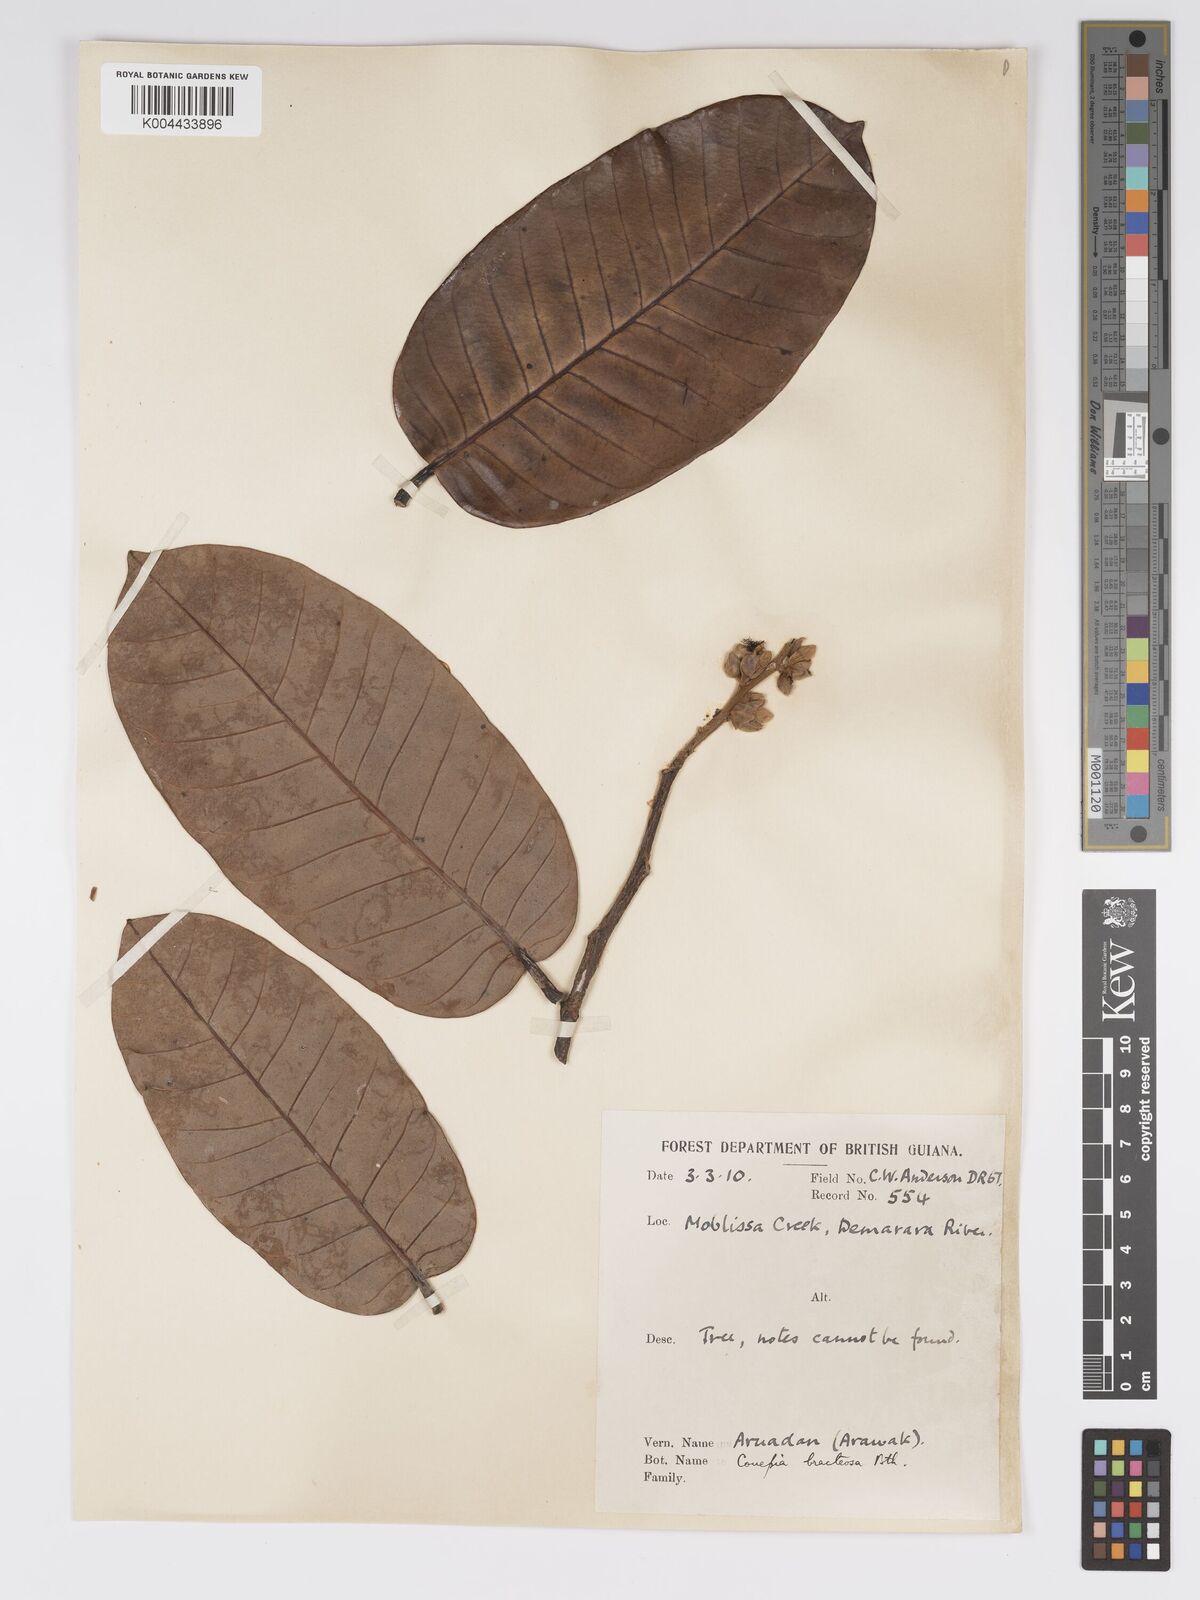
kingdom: Plantae
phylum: Tracheophyta
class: Magnoliopsida
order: Malpighiales
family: Chrysobalanaceae
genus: Couepia
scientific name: Couepia bracteosa
